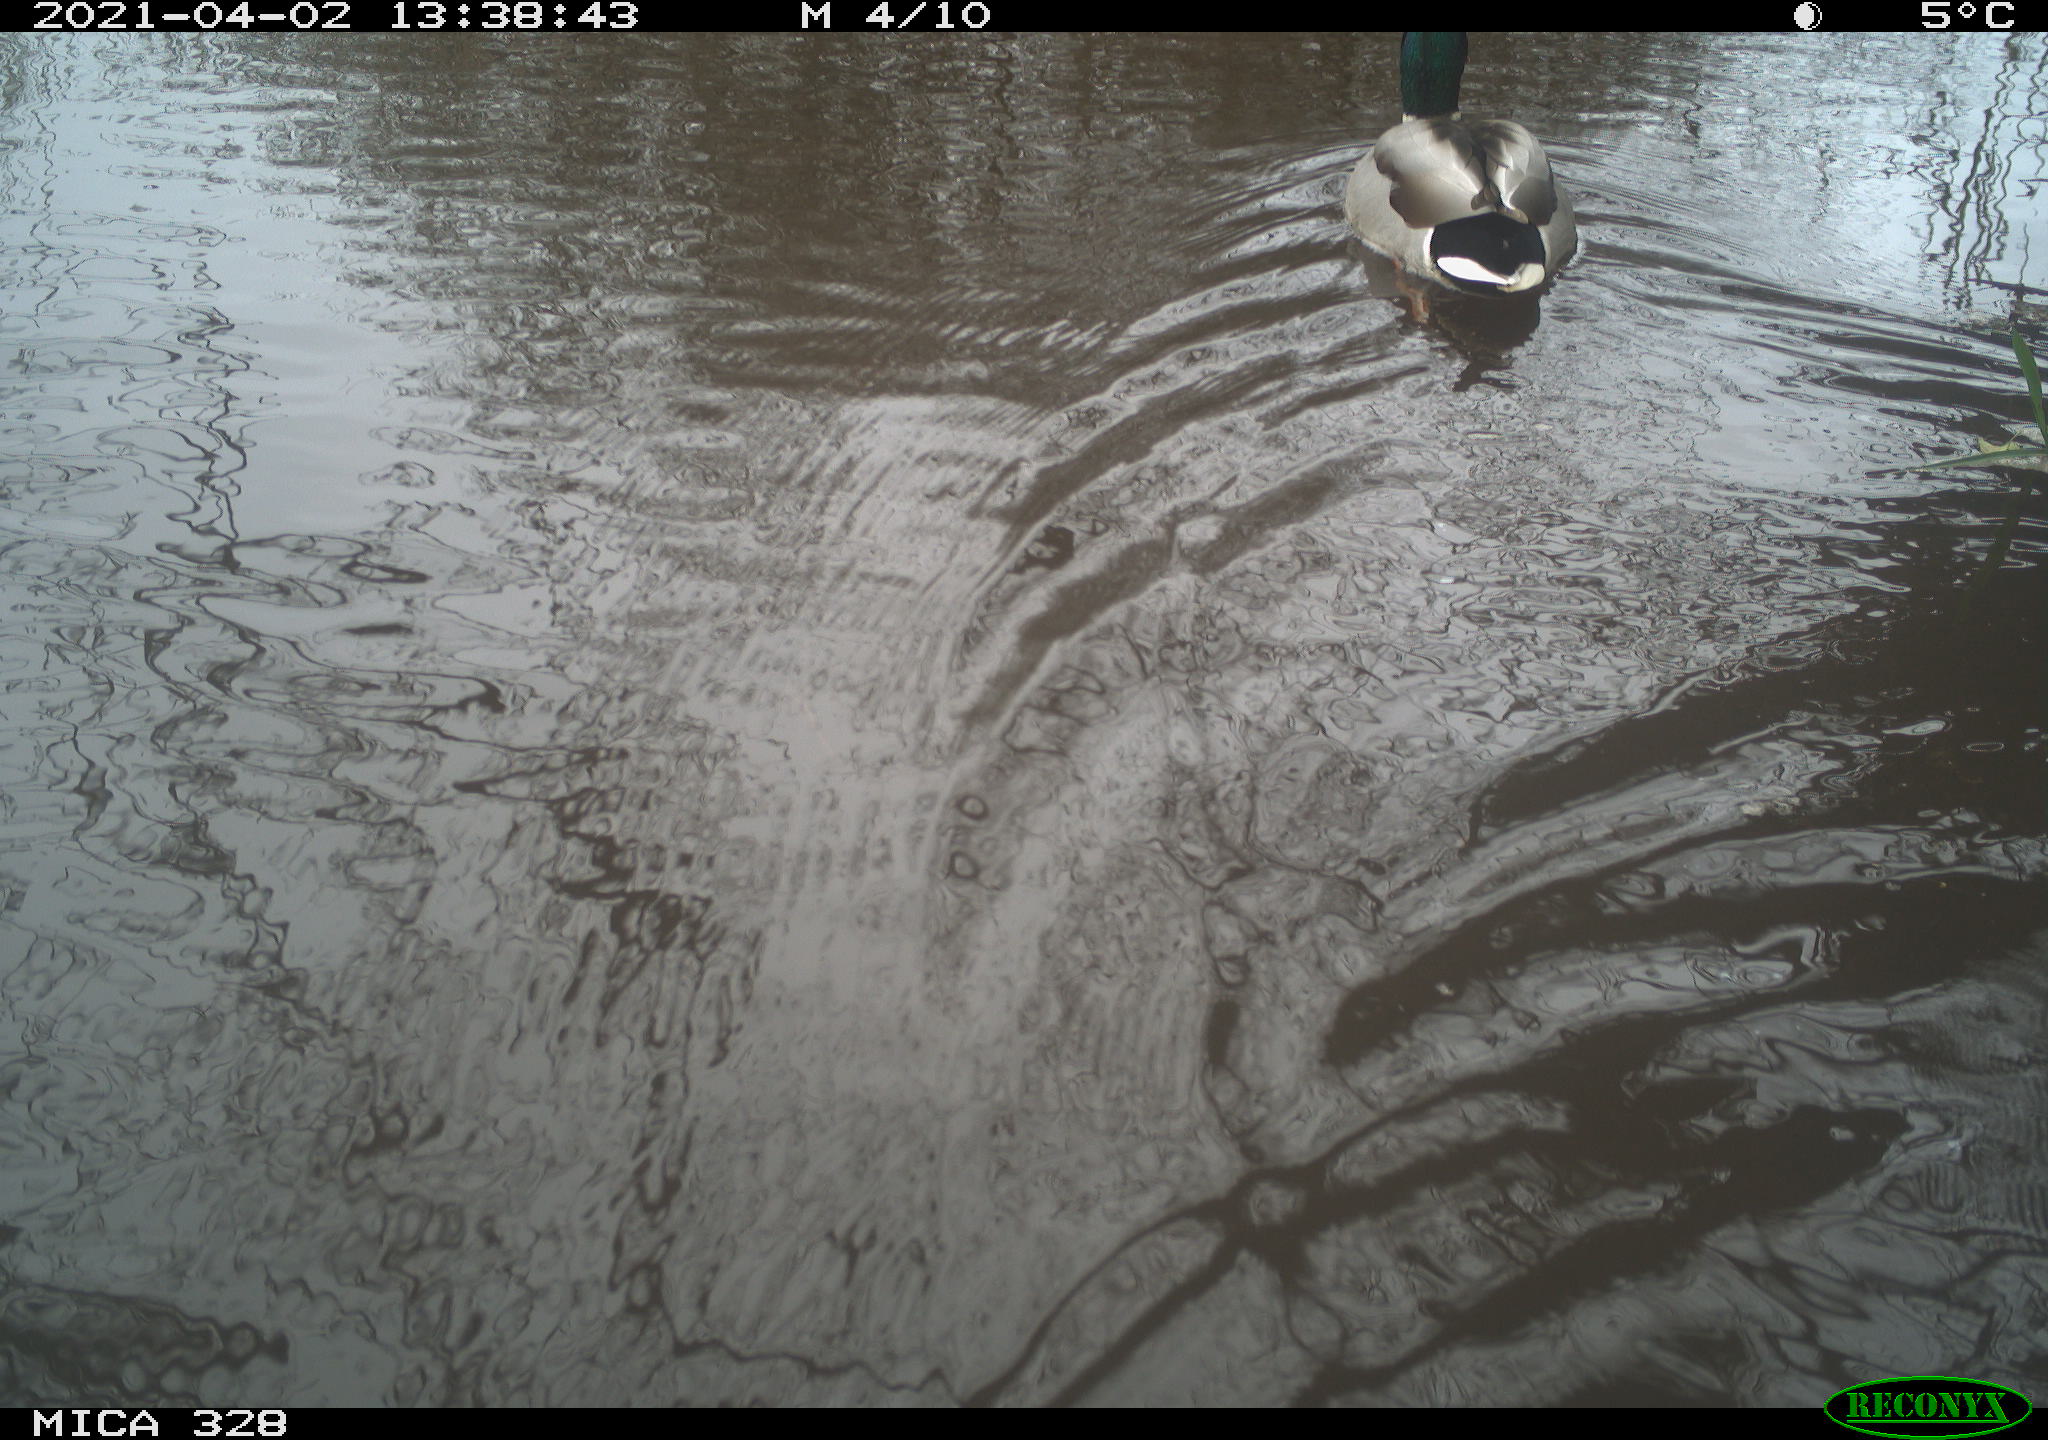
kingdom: Animalia
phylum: Chordata
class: Mammalia
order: Rodentia
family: Cricetidae
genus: Ondatra
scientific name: Ondatra zibethicus
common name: Muskrat
